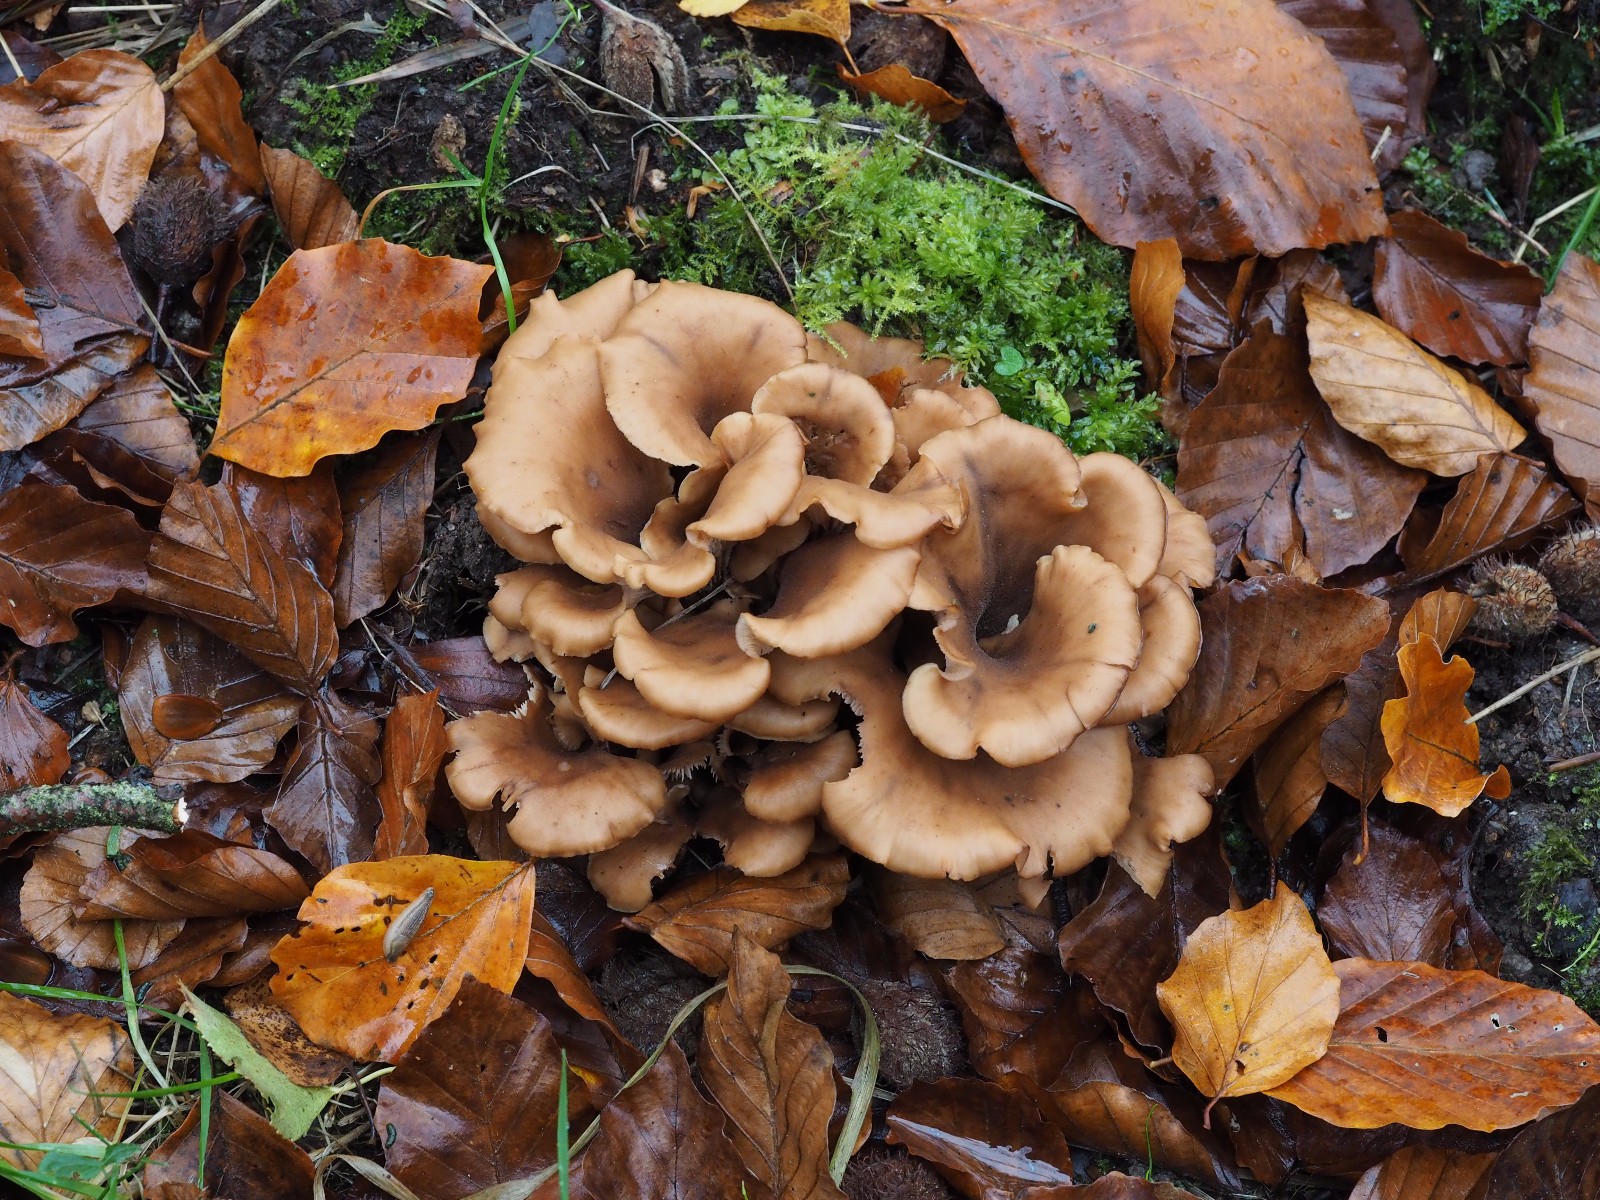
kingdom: Fungi
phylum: Basidiomycota
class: Agaricomycetes
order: Russulales
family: Auriscalpiaceae
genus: Lentinellus
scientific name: Lentinellus cochleatus
